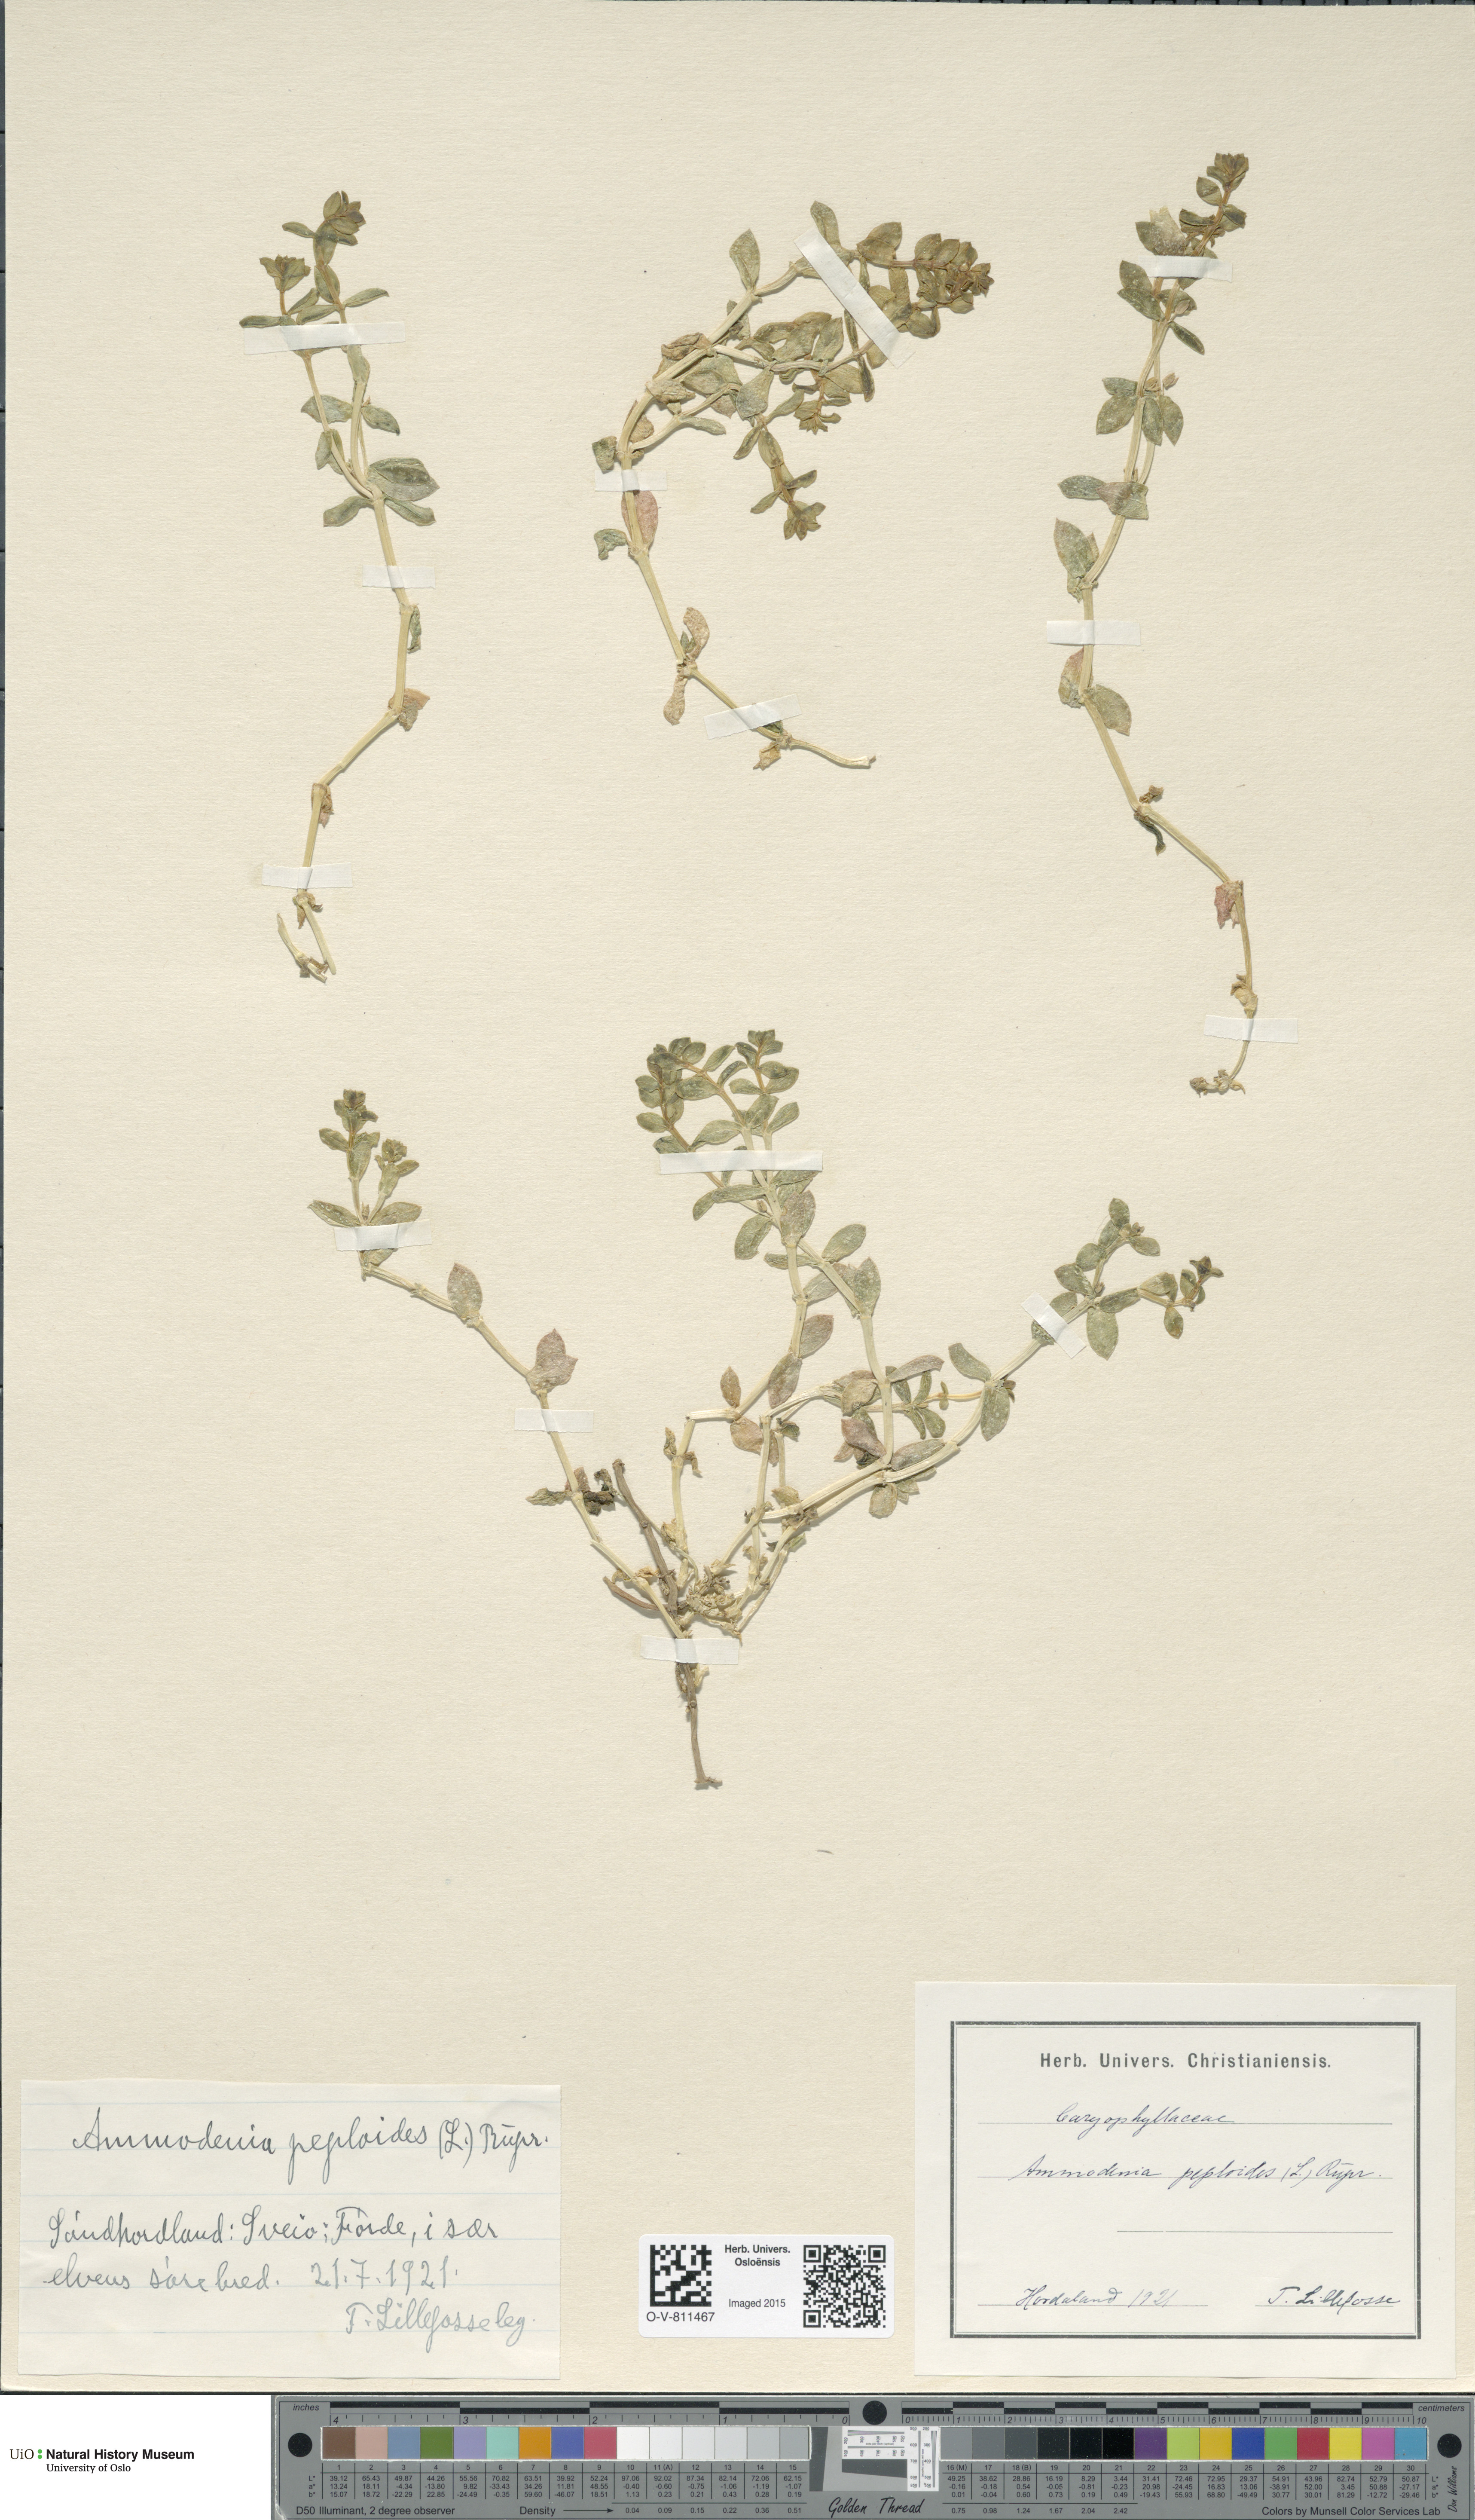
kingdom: Plantae
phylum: Tracheophyta
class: Magnoliopsida
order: Caryophyllales
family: Caryophyllaceae
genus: Honckenya
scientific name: Honckenya peploides
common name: Sea sandwort
